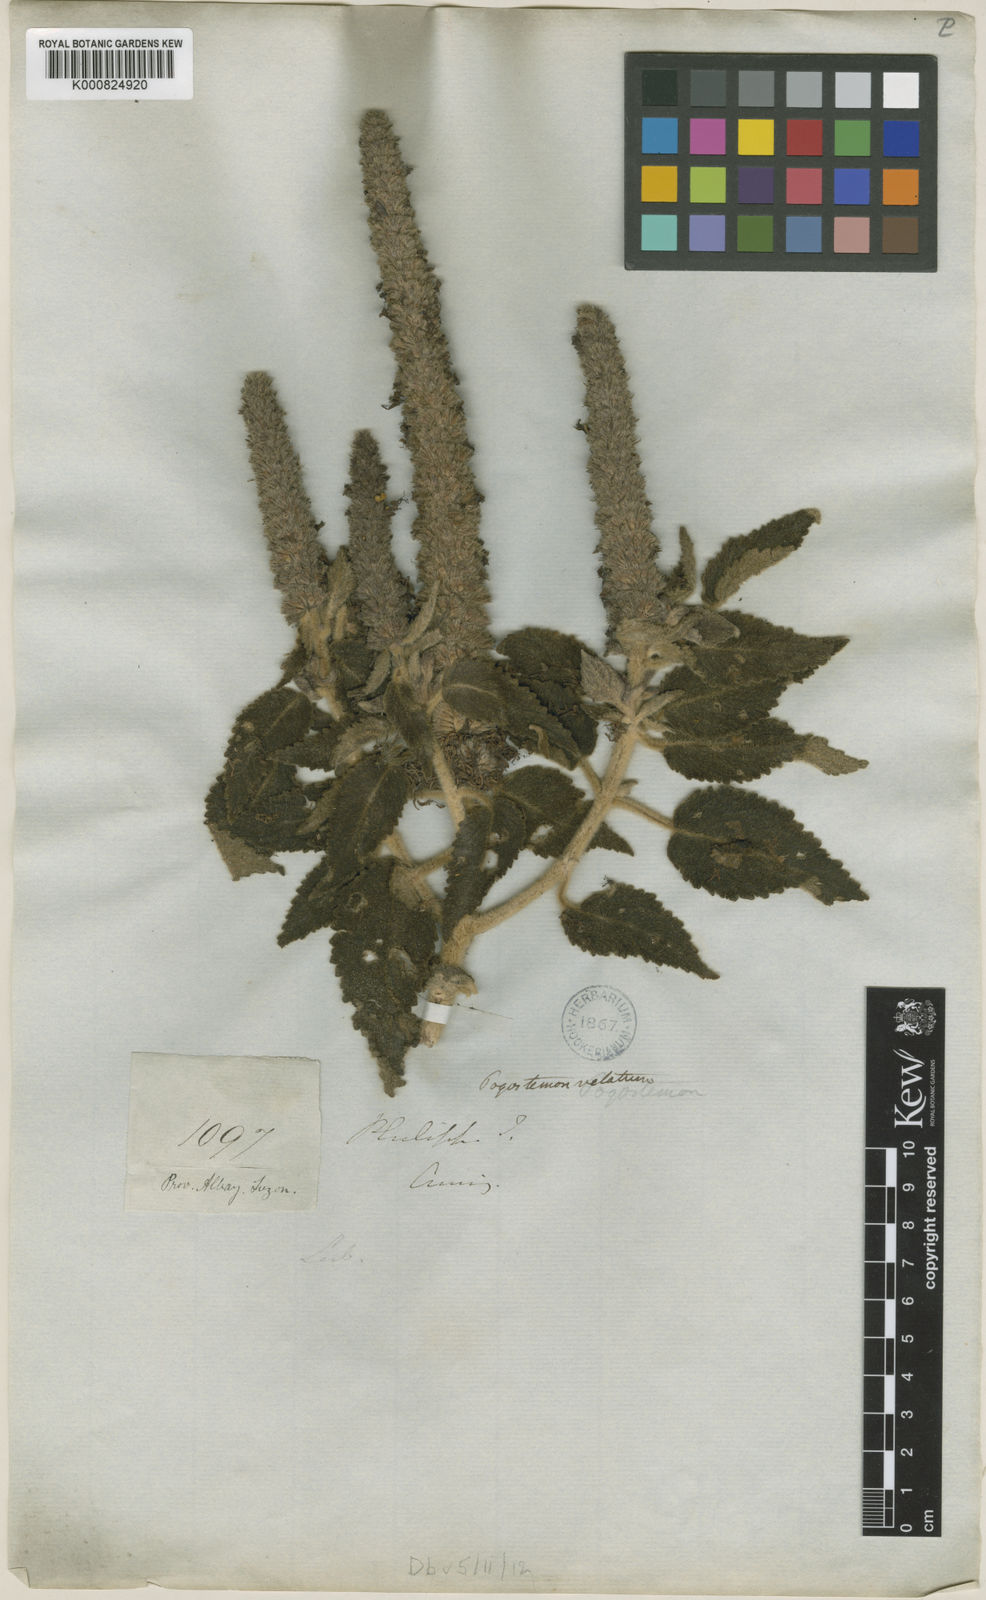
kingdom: Plantae
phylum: Tracheophyta
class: Magnoliopsida
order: Lamiales
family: Lamiaceae
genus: Pogostemon
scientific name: Pogostemon velatus
